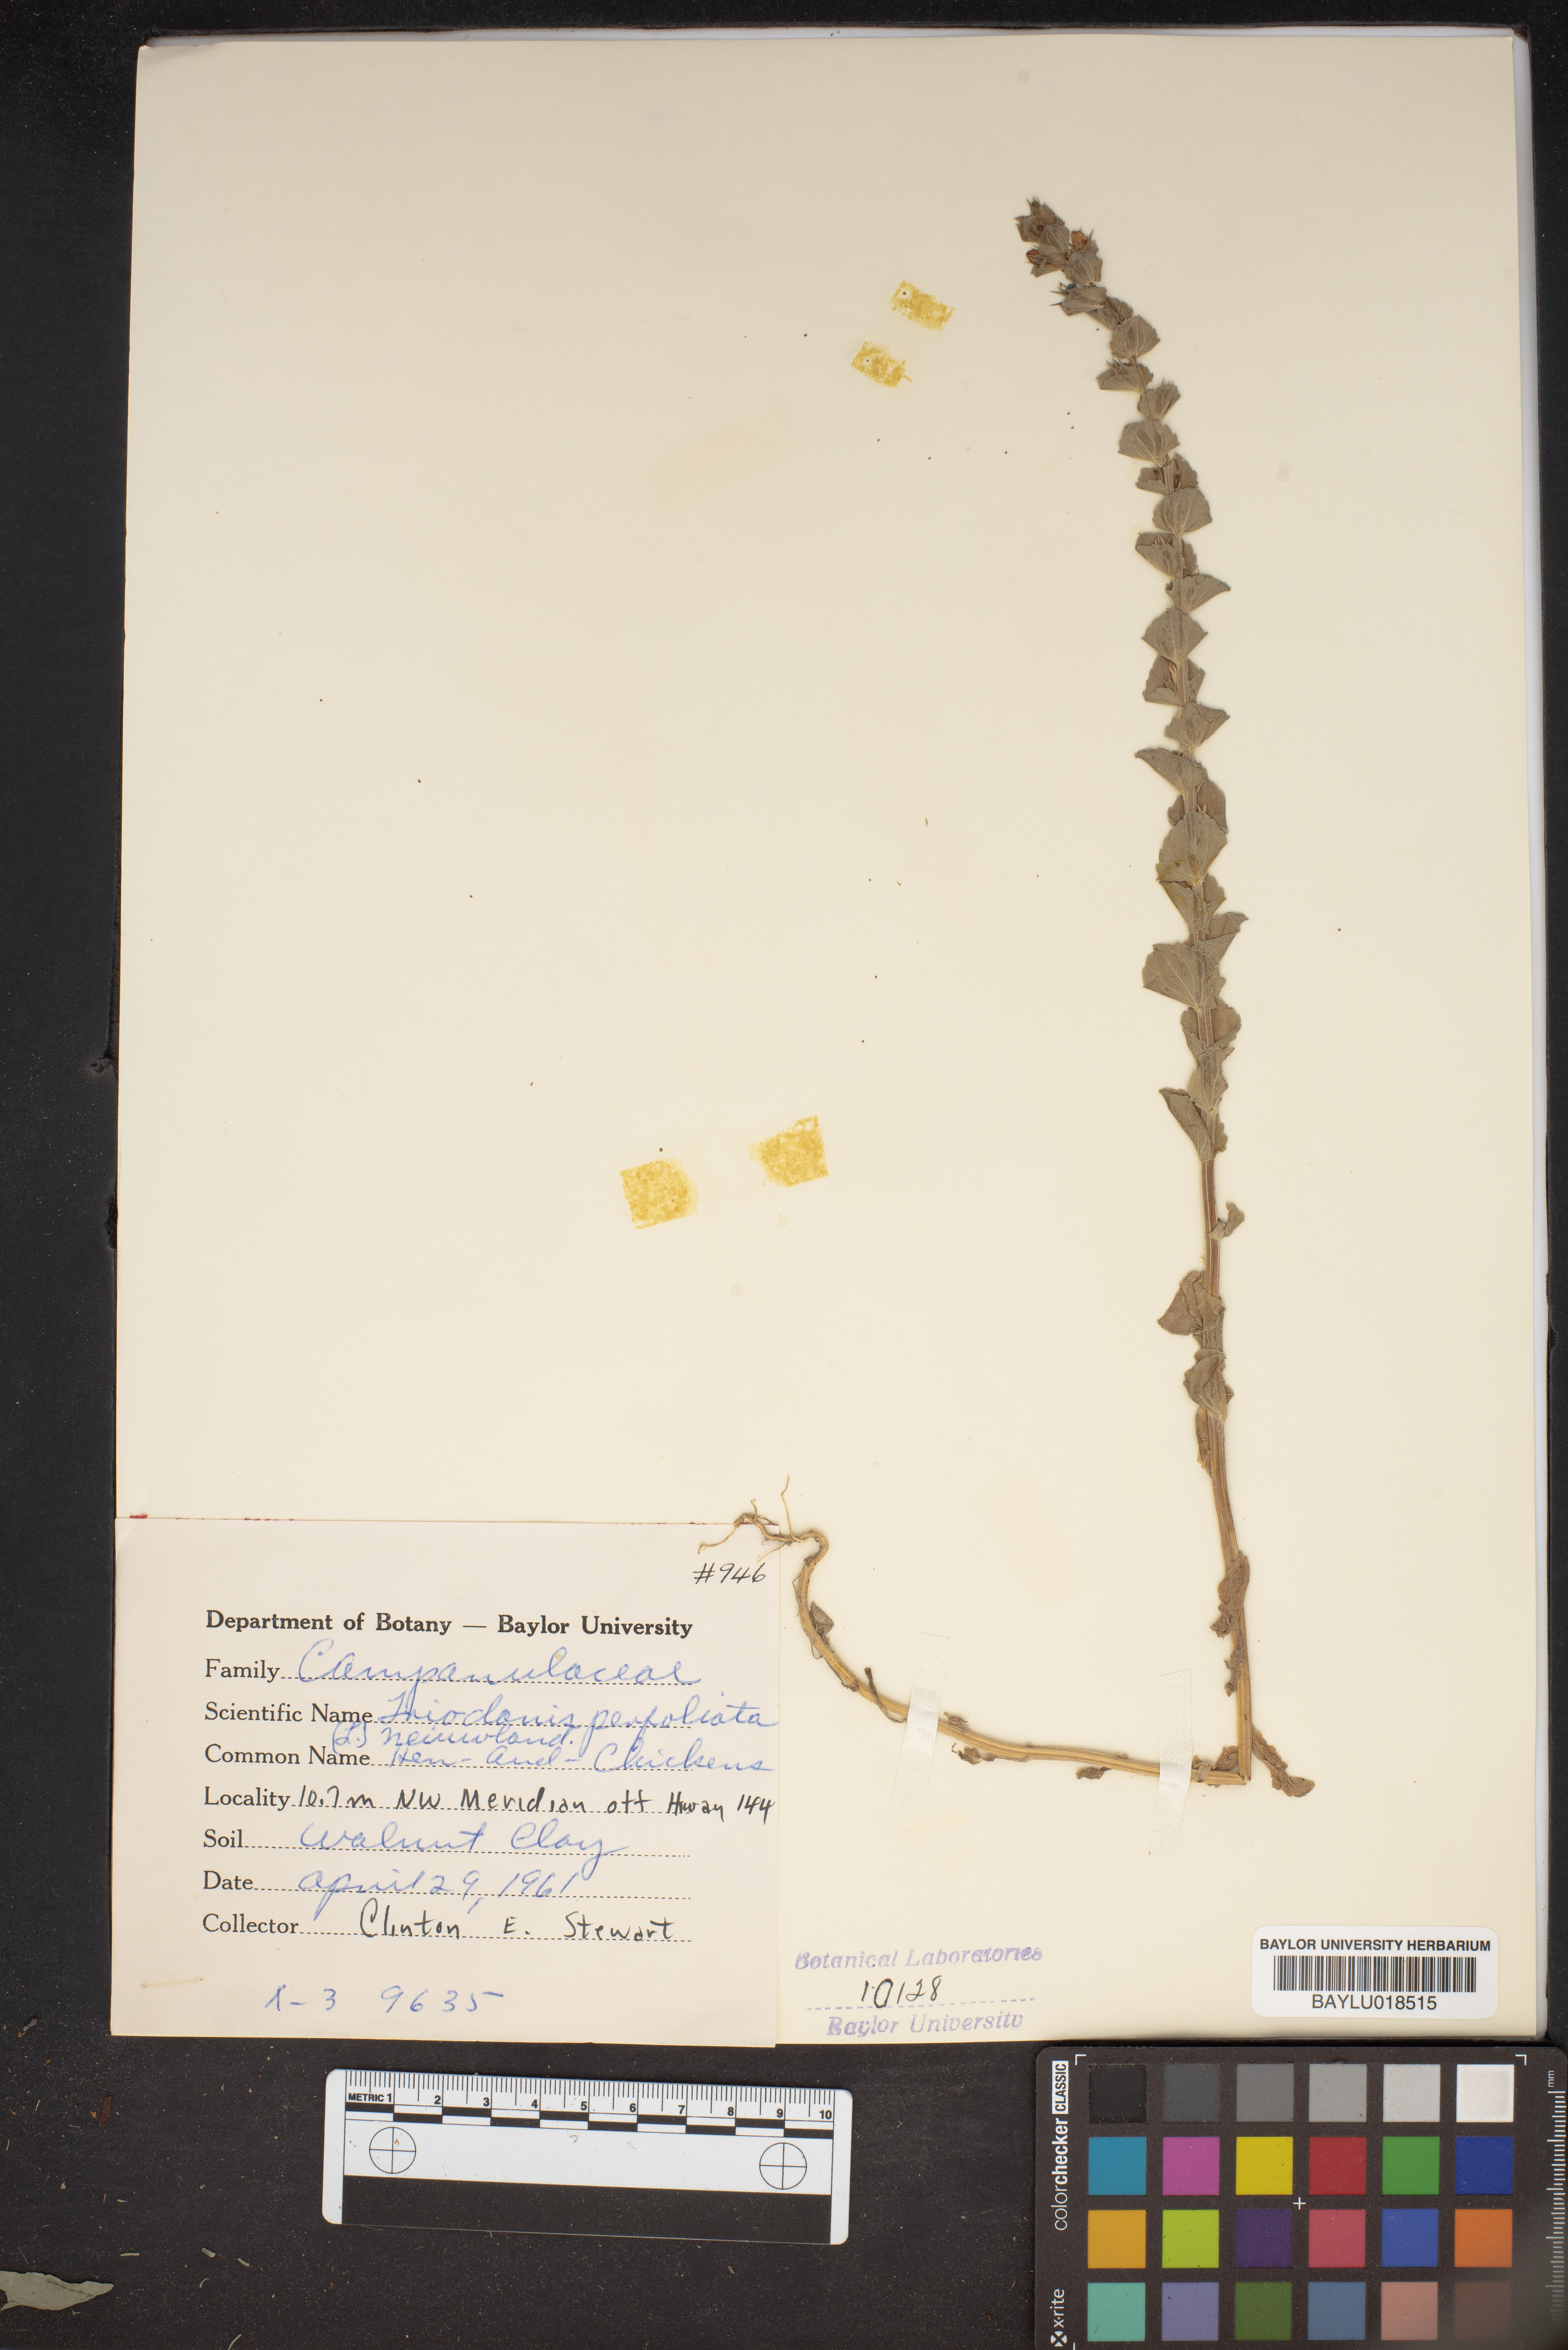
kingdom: Plantae
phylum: Tracheophyta
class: Magnoliopsida
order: Asterales
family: Campanulaceae
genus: Triodanis
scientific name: Triodanis perfoliata
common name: Clasping venus' looking-glass
